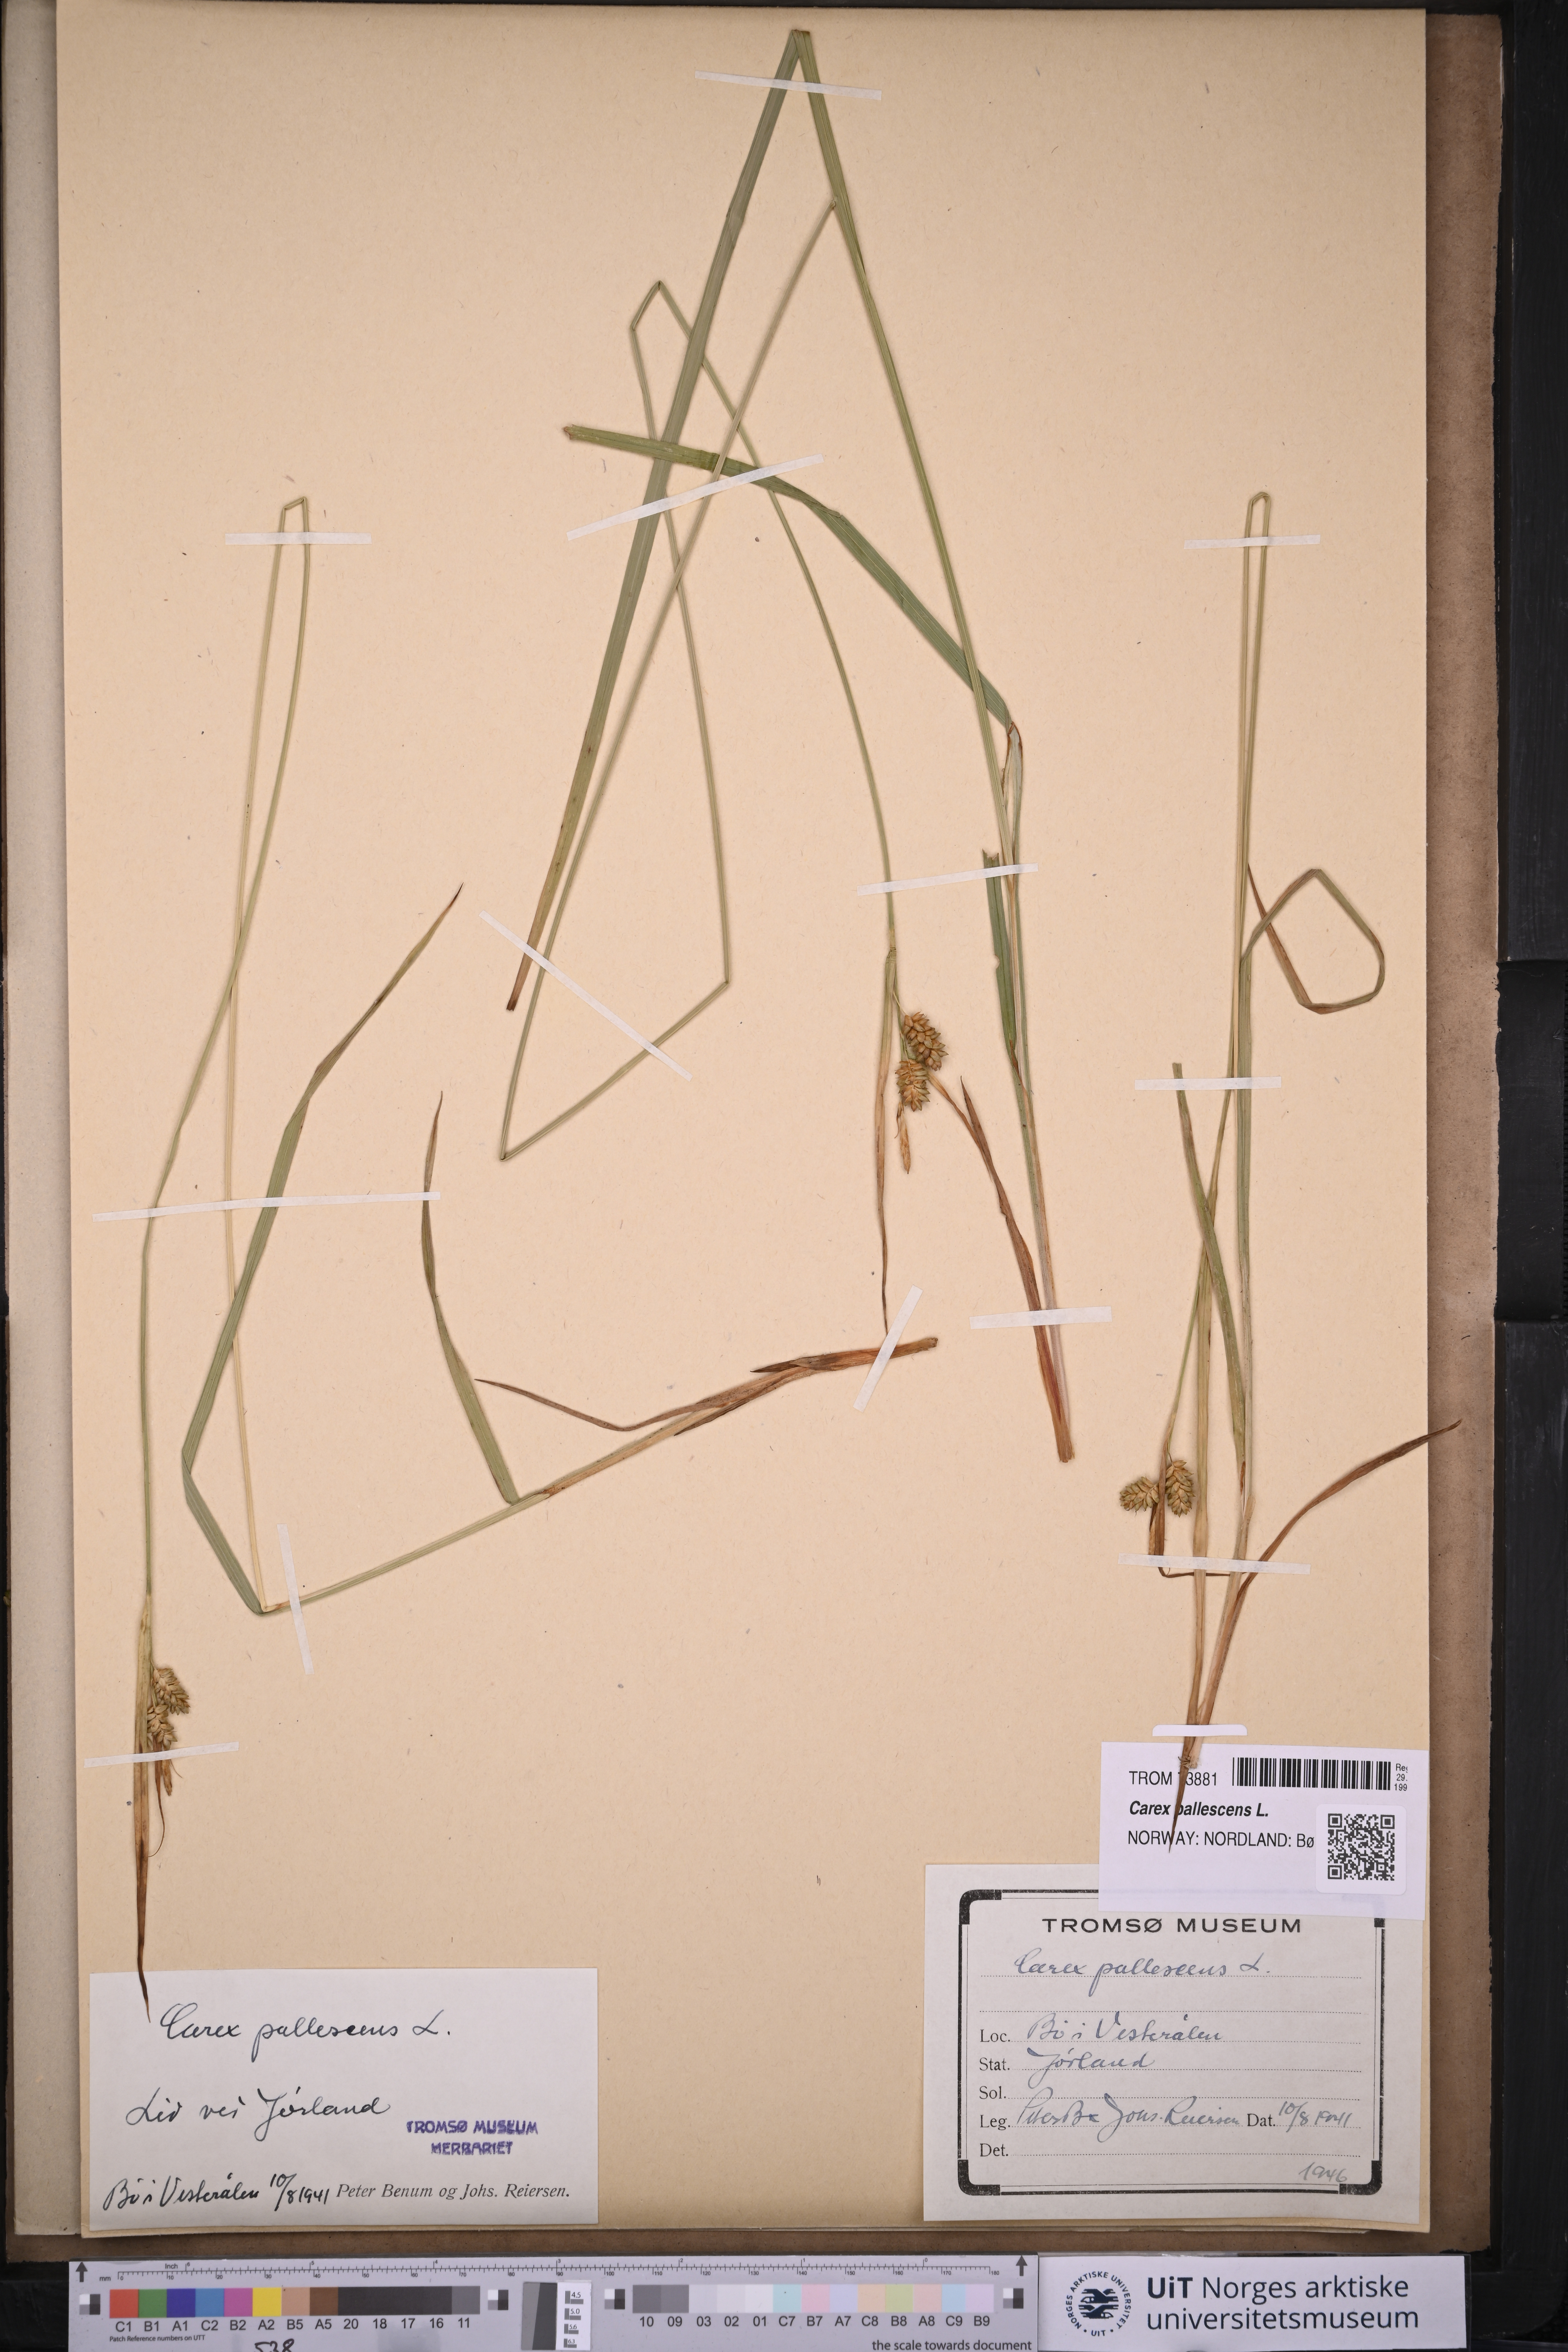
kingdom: Plantae
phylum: Tracheophyta
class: Liliopsida
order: Poales
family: Cyperaceae
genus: Carex
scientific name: Carex pallescens
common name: Pale sedge
